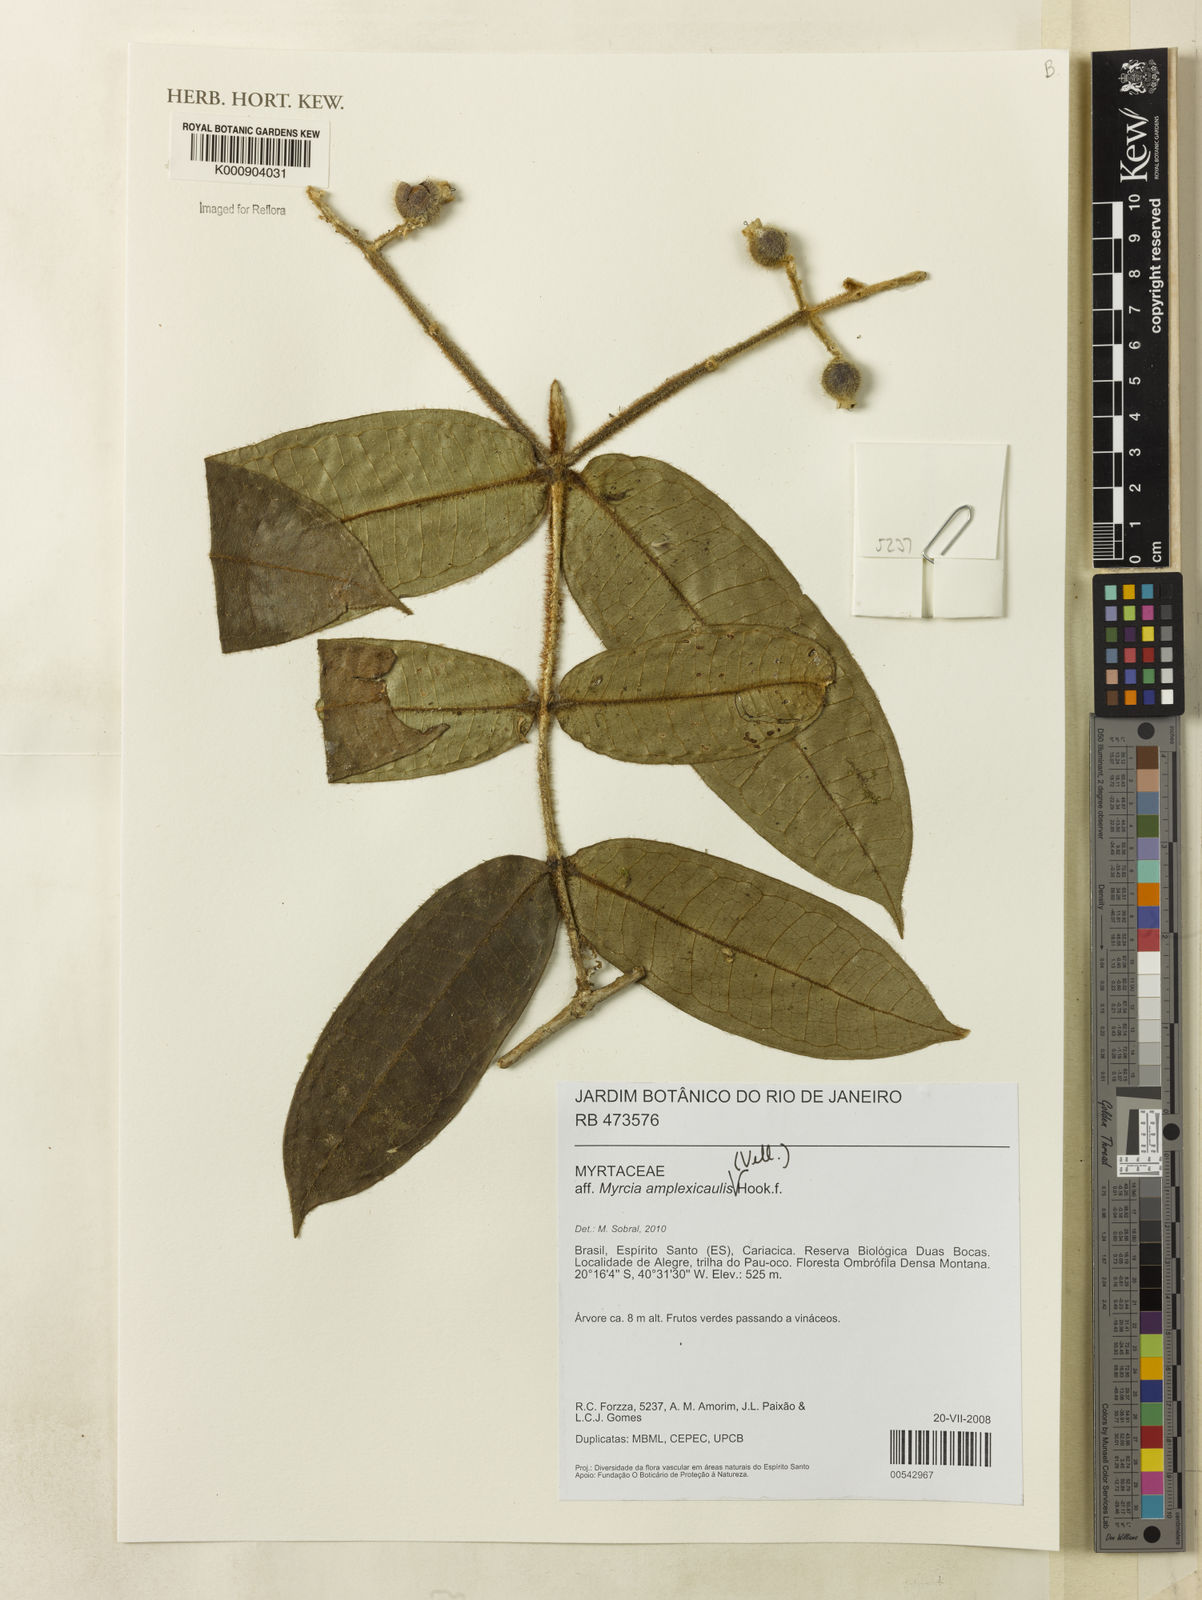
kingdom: Plantae
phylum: Tracheophyta
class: Magnoliopsida
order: Myrtales
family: Myrtaceae
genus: Myrcia
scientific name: Myrcia amplexicaulis
